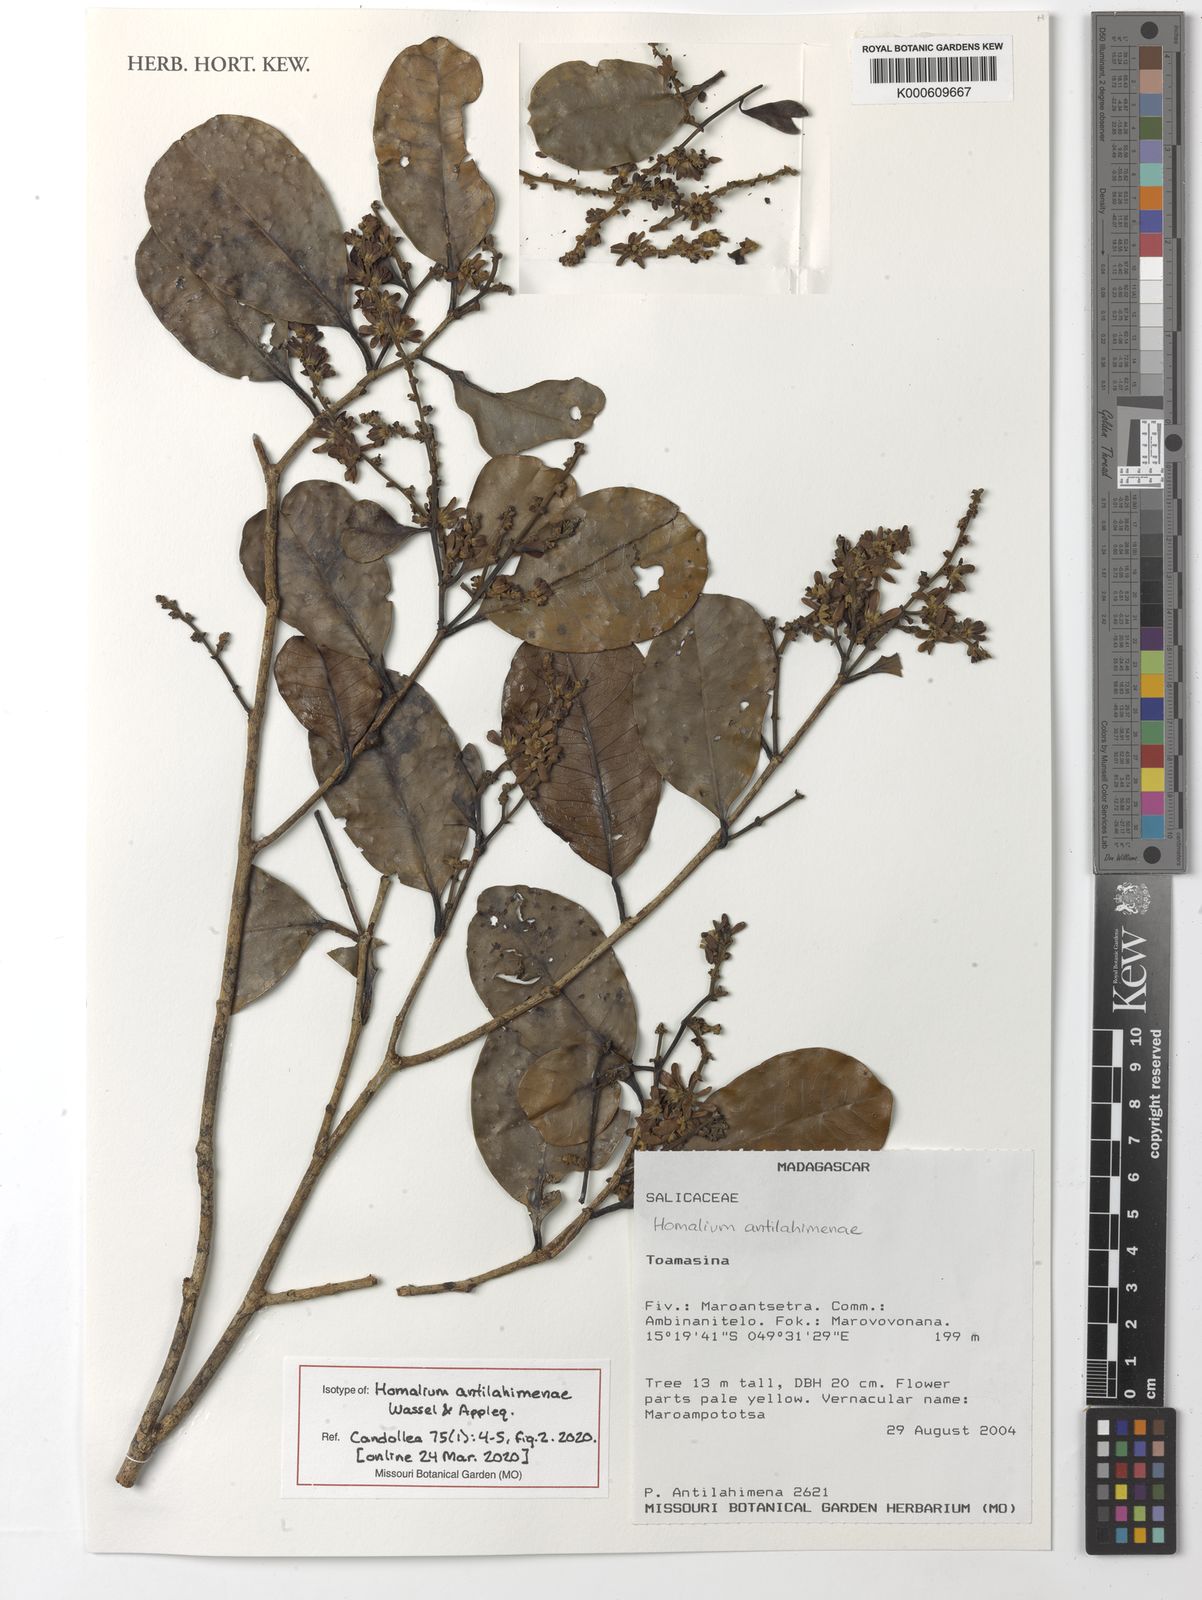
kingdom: Plantae
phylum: Tracheophyta
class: Magnoliopsida
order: Malpighiales
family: Salicaceae
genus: Homalium
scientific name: Homalium
